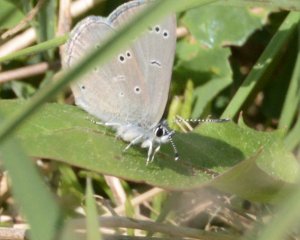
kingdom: Animalia
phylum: Arthropoda
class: Insecta
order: Lepidoptera
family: Lycaenidae
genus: Glaucopsyche
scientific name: Glaucopsyche lygdamus
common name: Silvery Blue
